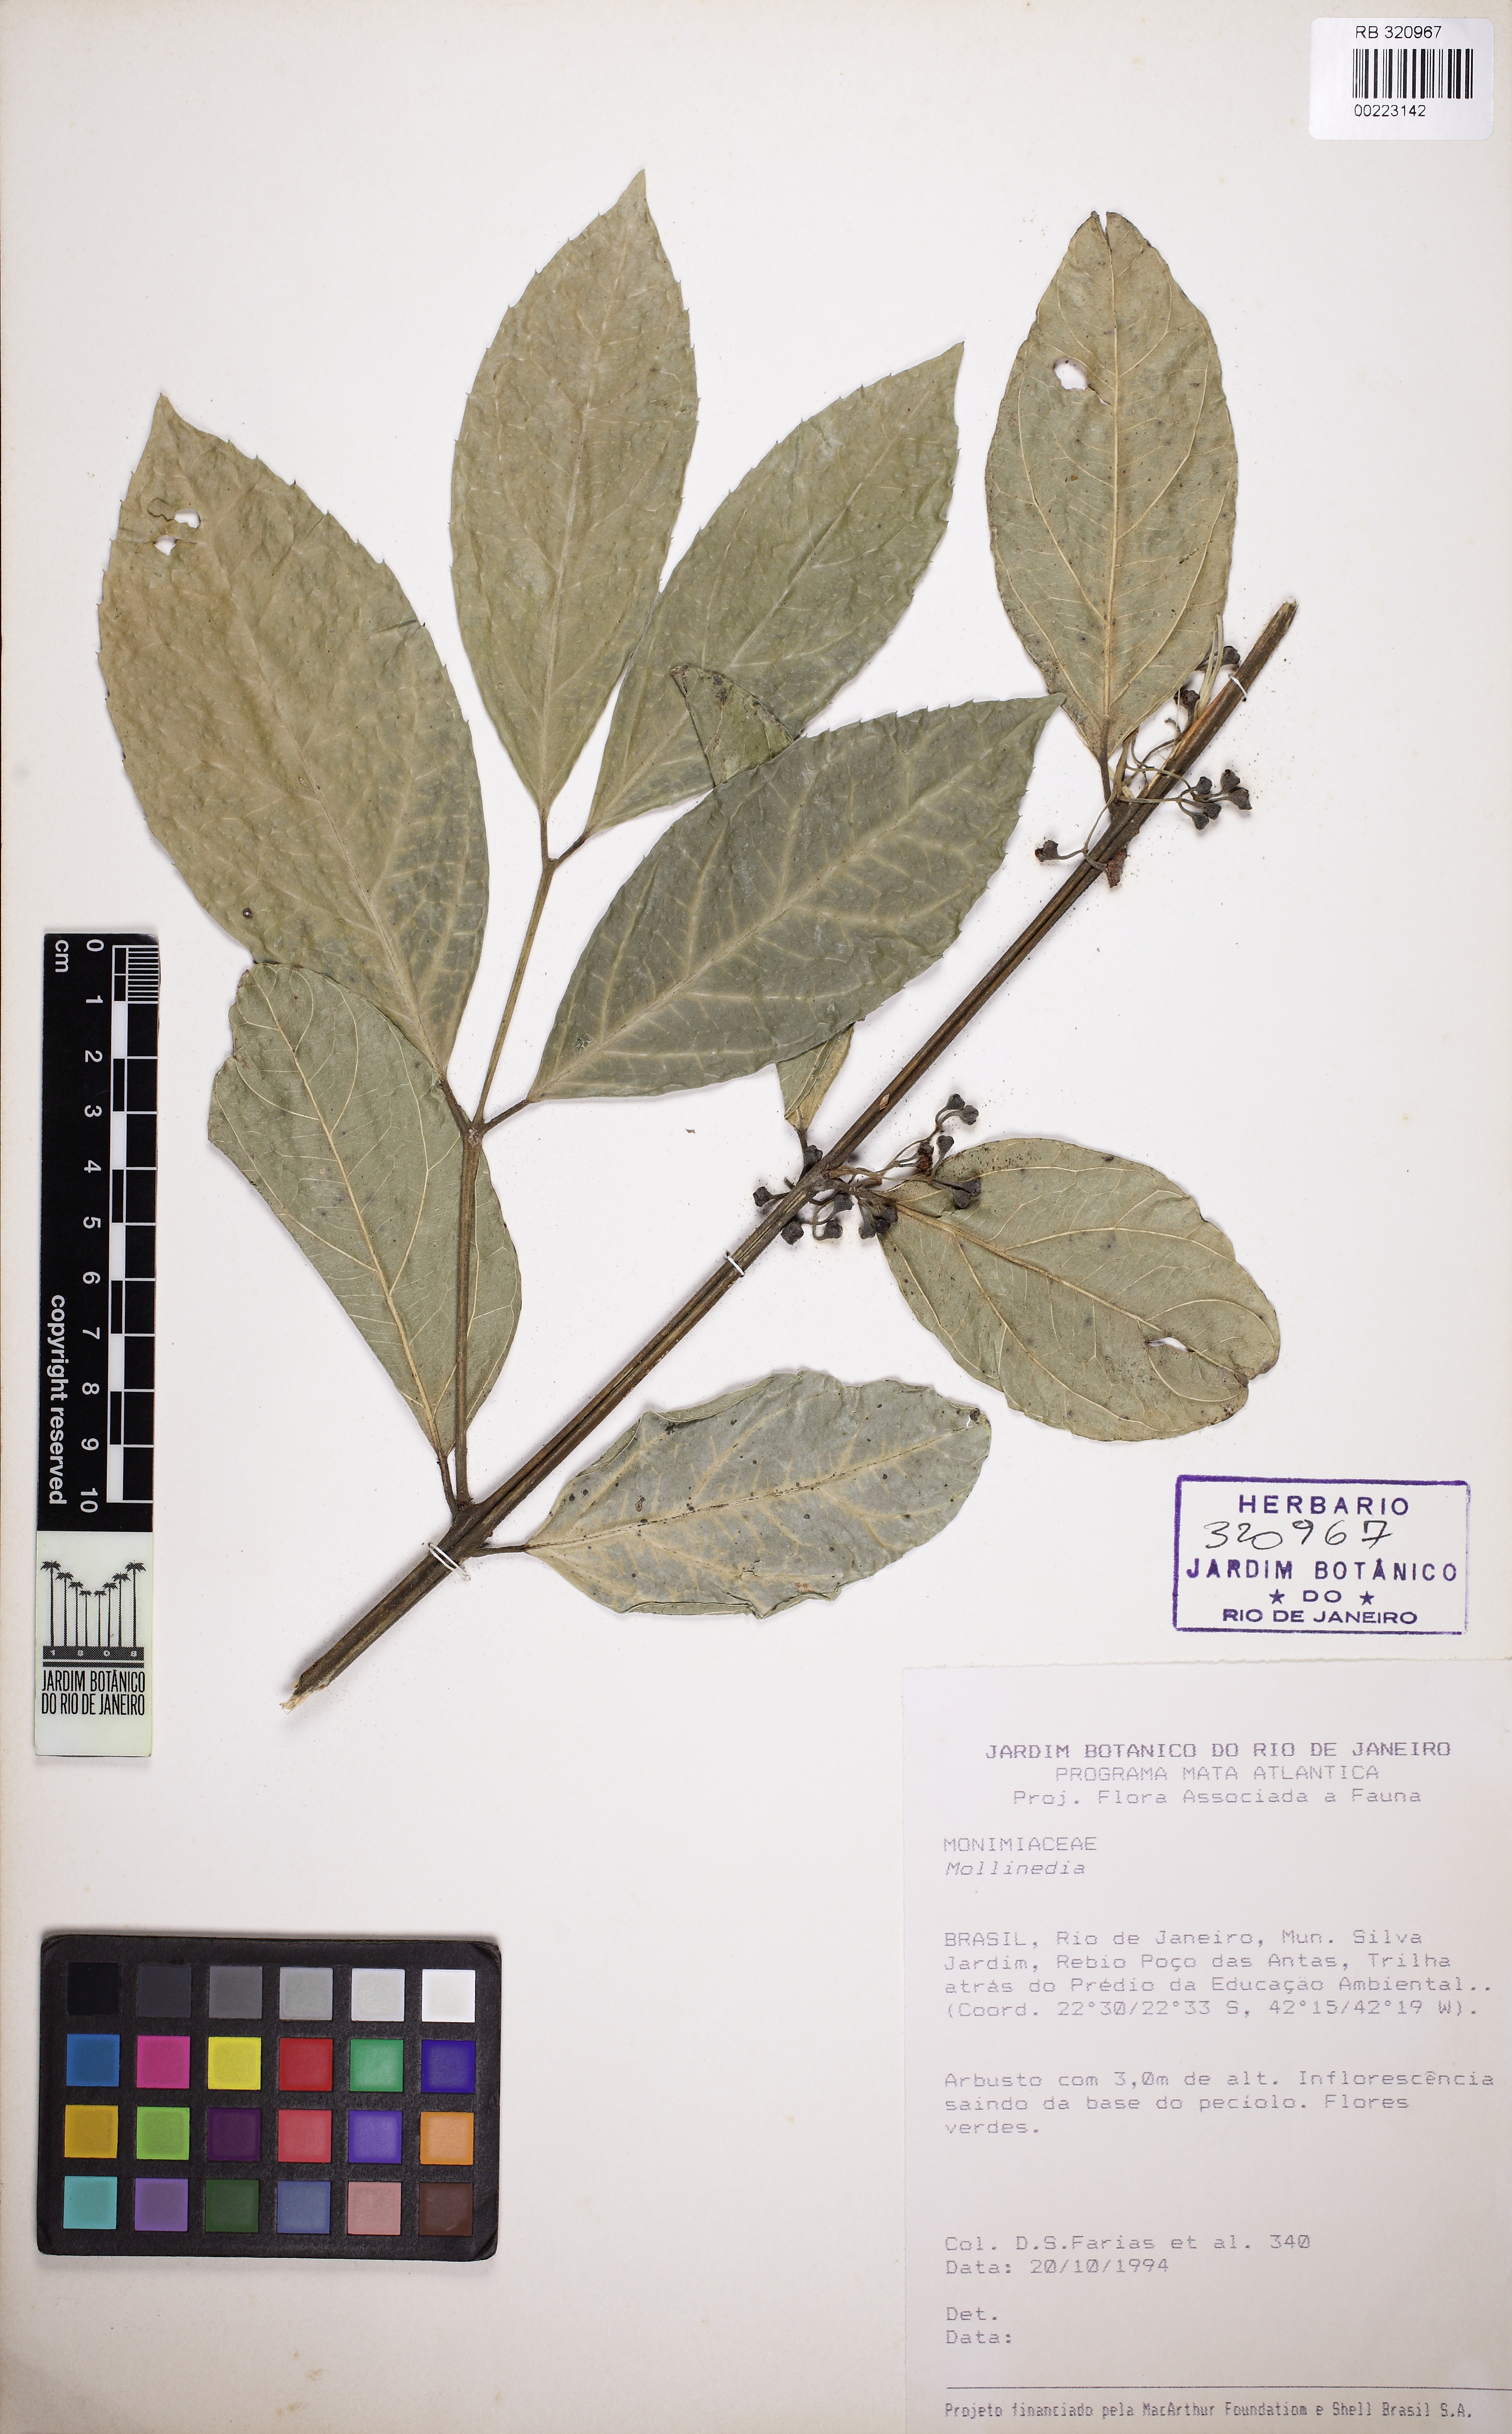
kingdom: Plantae
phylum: Tracheophyta
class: Magnoliopsida
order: Laurales
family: Monimiaceae
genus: Mollinedia
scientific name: Mollinedia umbellata
